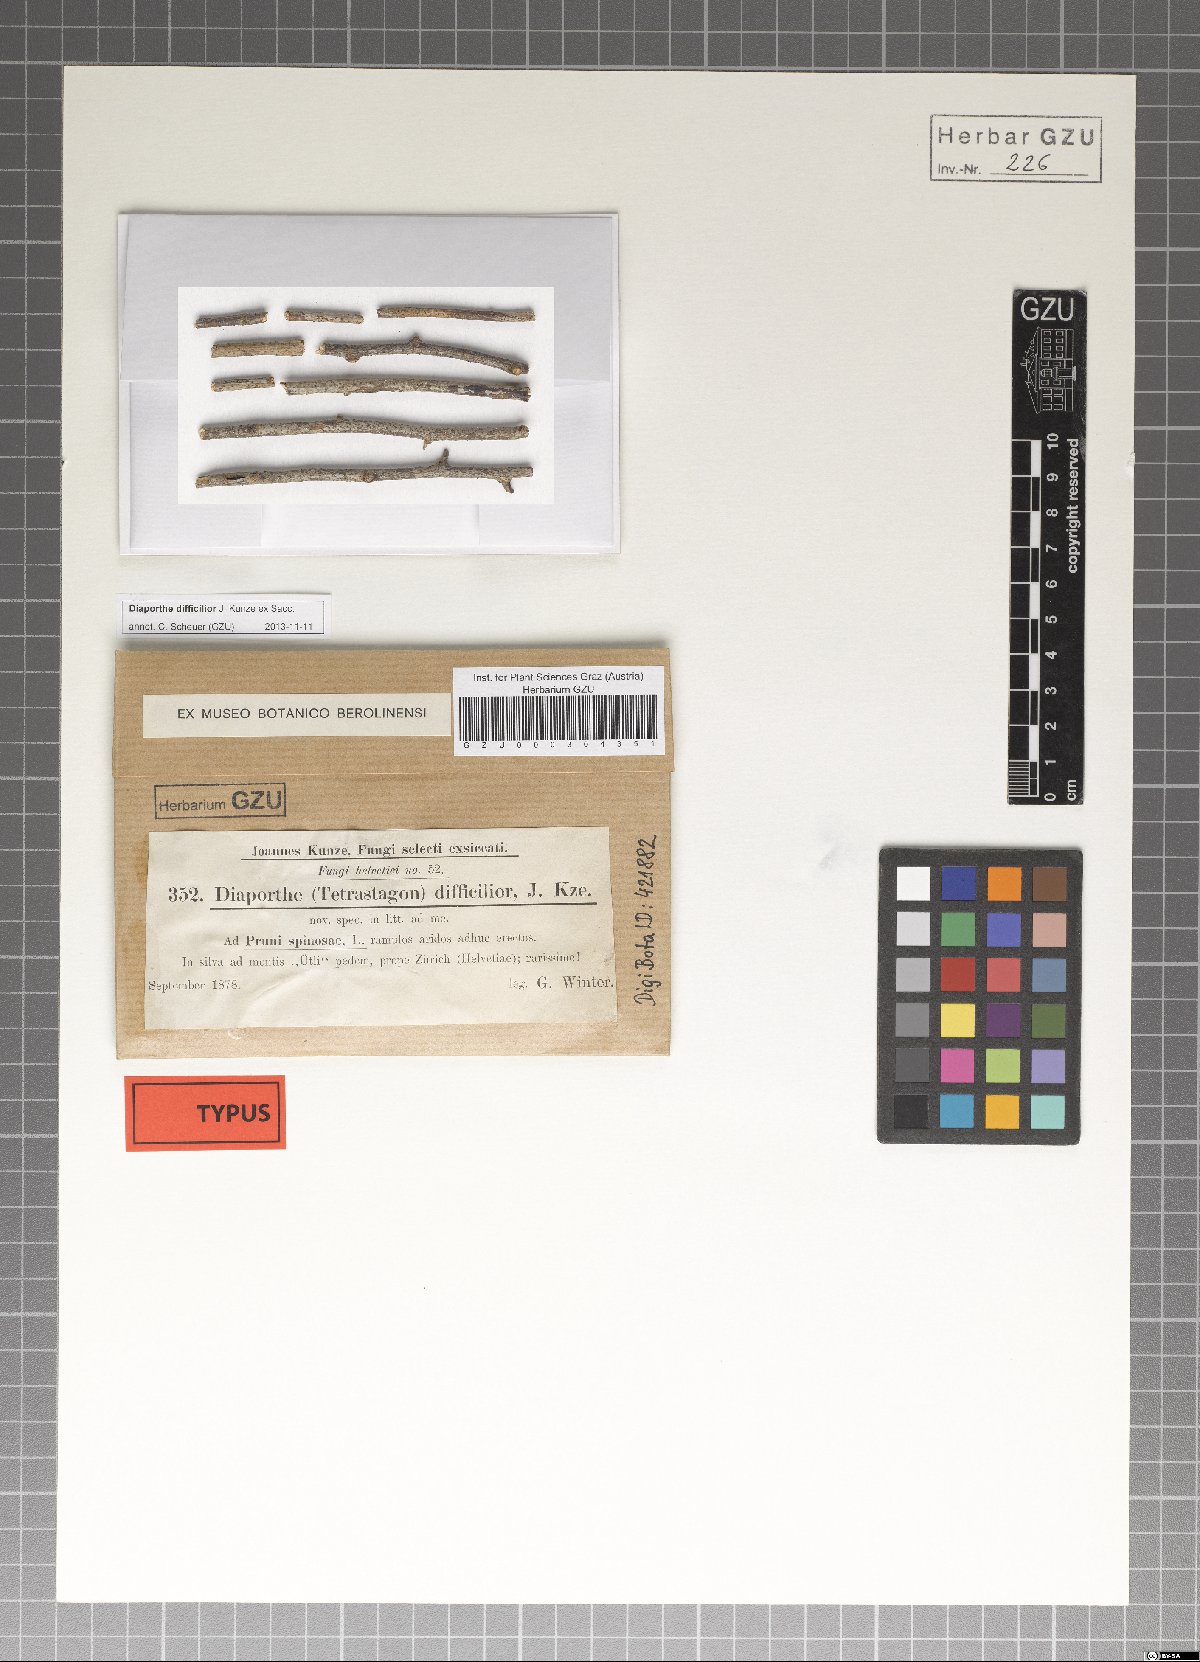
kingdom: Fungi
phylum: Ascomycota
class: Sordariomycetes
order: Diaporthales
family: Valsaceae
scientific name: Valsaceae
